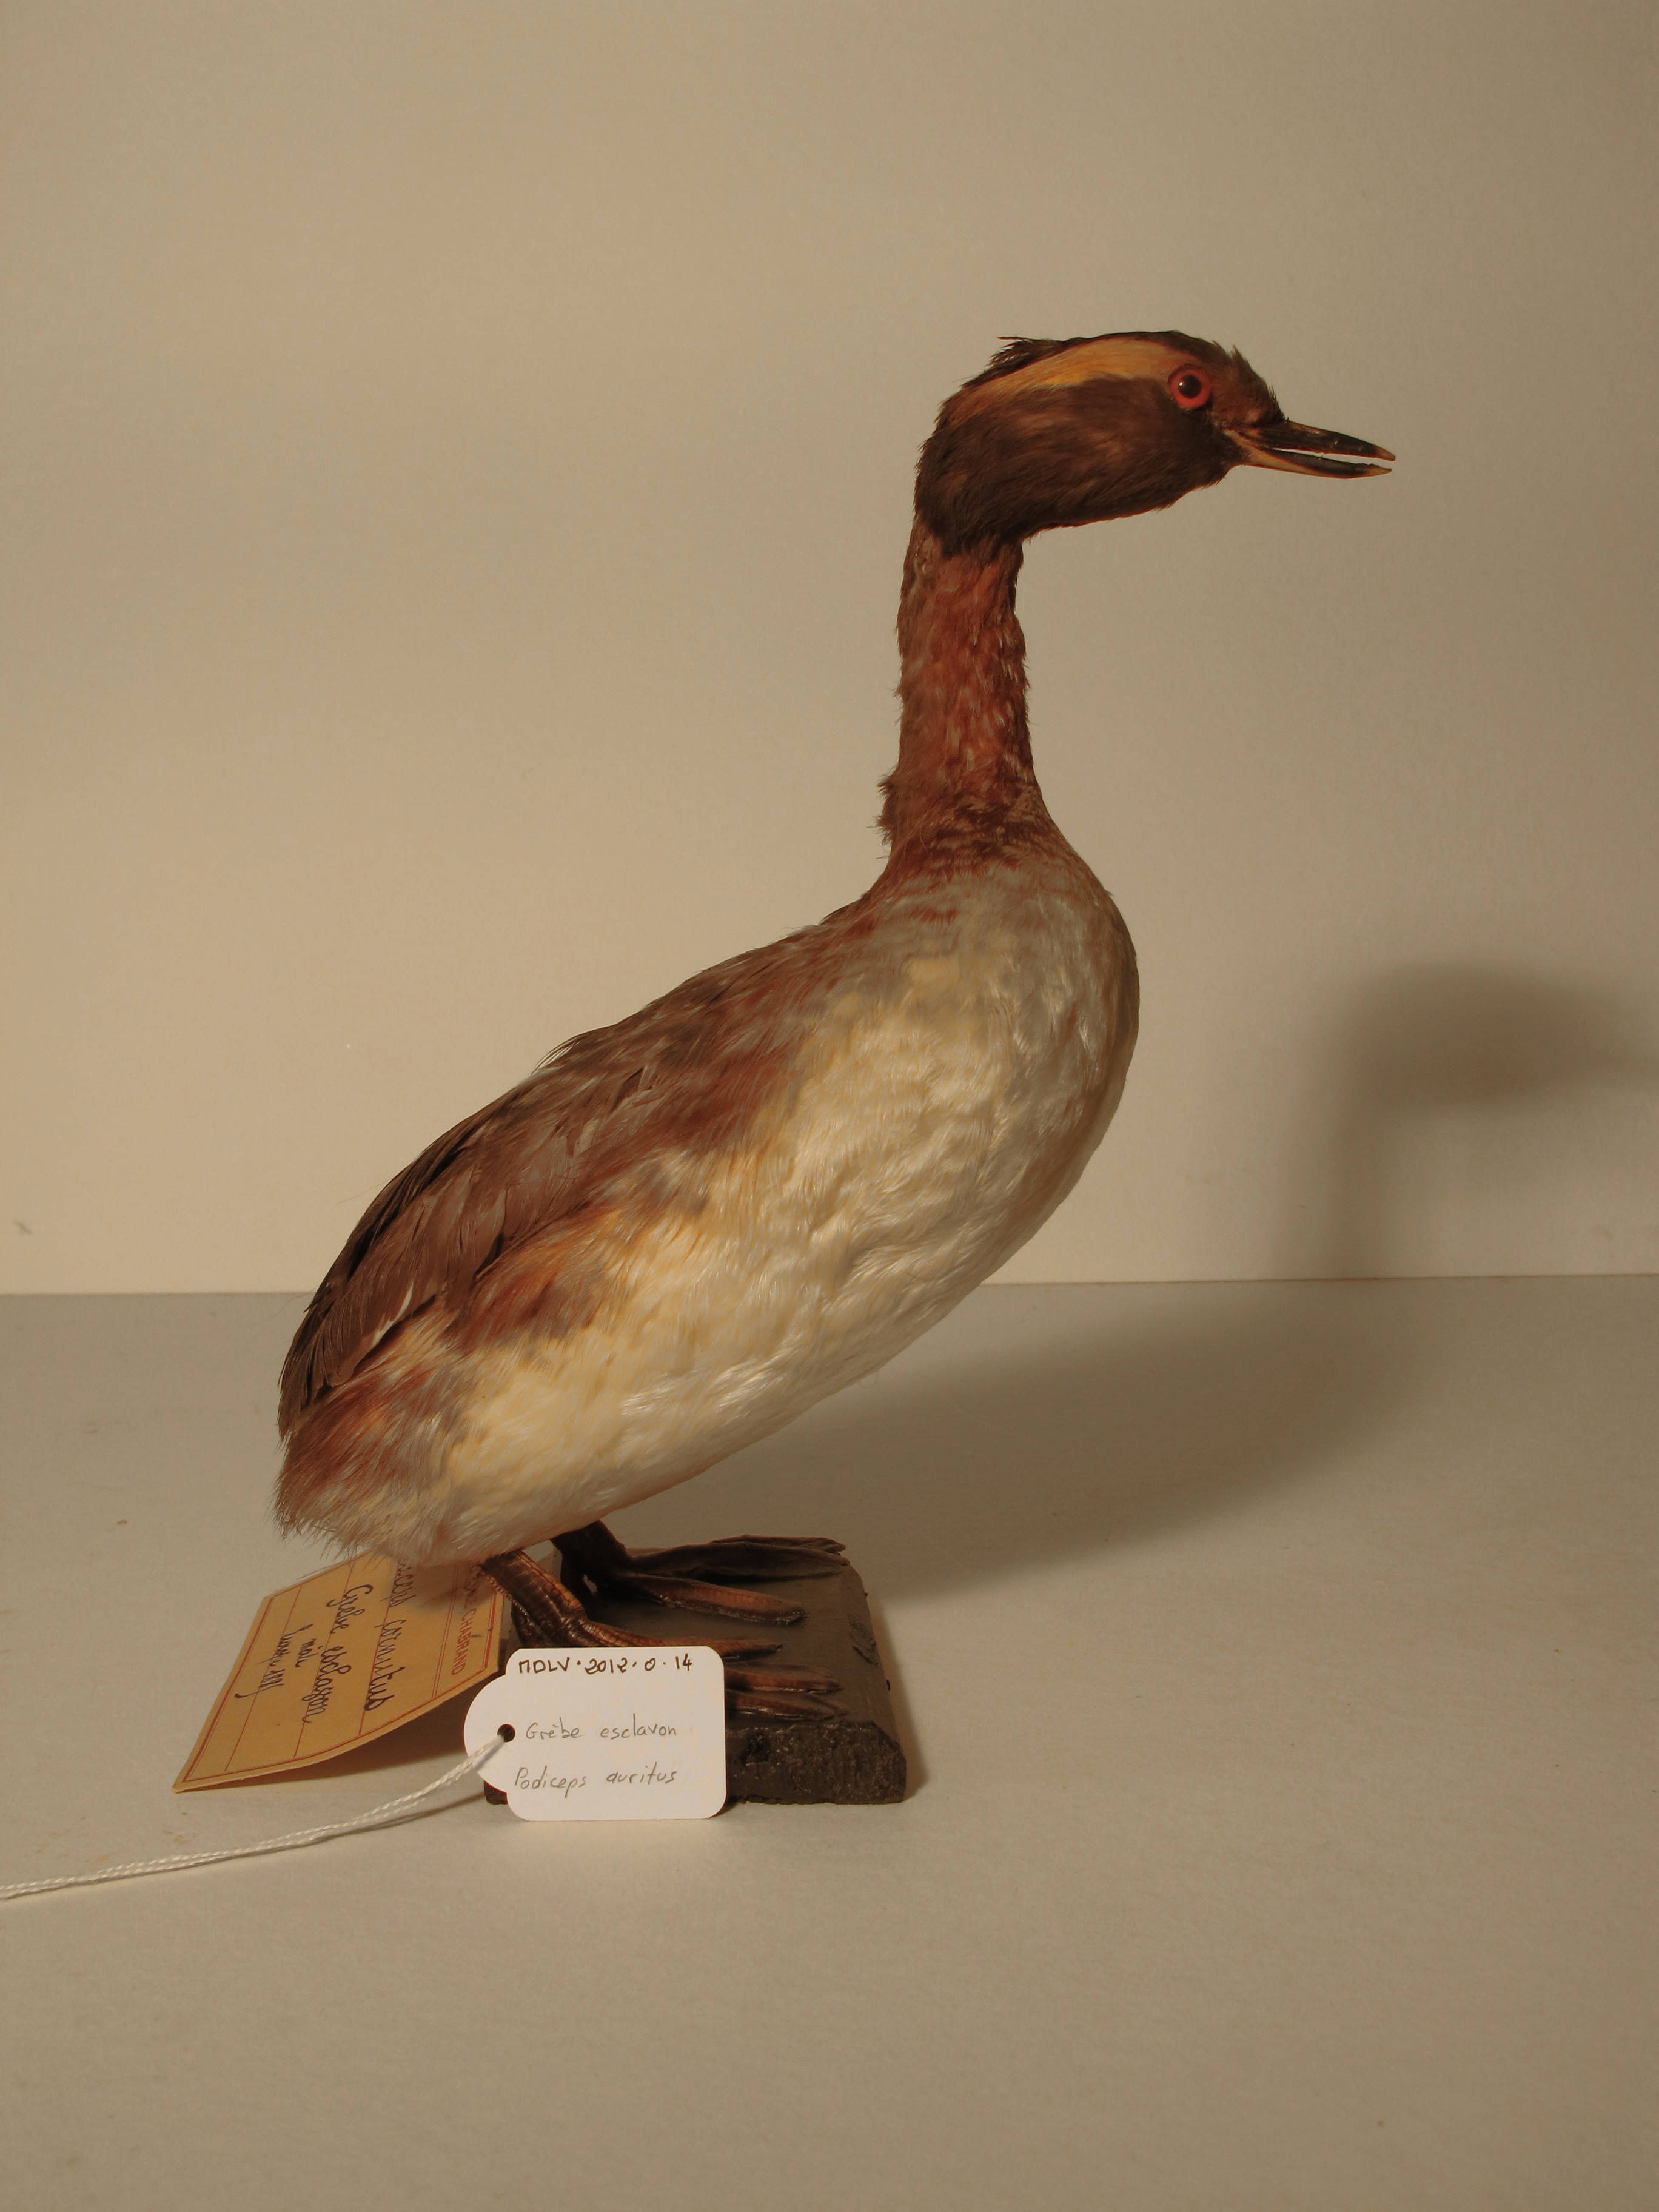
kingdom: Animalia
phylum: Chordata
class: Aves
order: Podicipediformes
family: Podicipedidae
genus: Podiceps
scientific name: Podiceps auritus
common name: Horned Grebe
